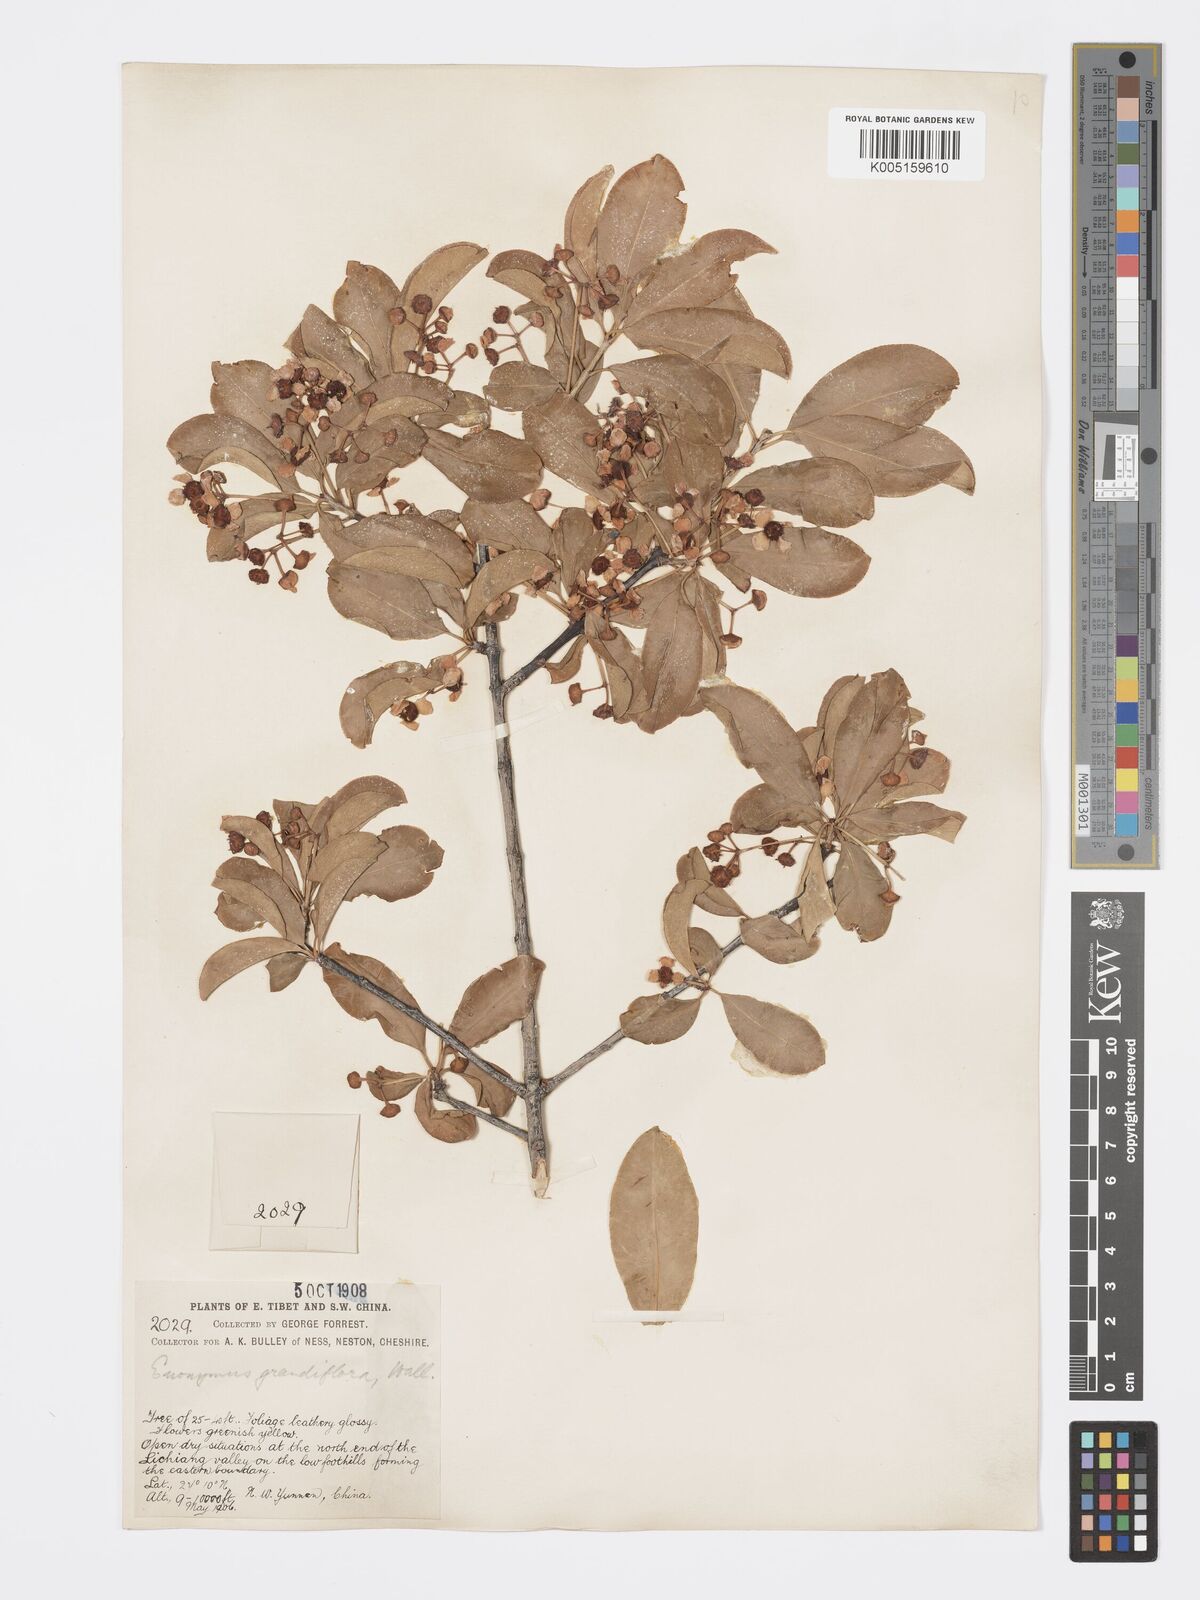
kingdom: Plantae
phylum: Tracheophyta
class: Magnoliopsida
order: Celastrales
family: Celastraceae
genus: Euonymus
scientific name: Euonymus grandiflorus
